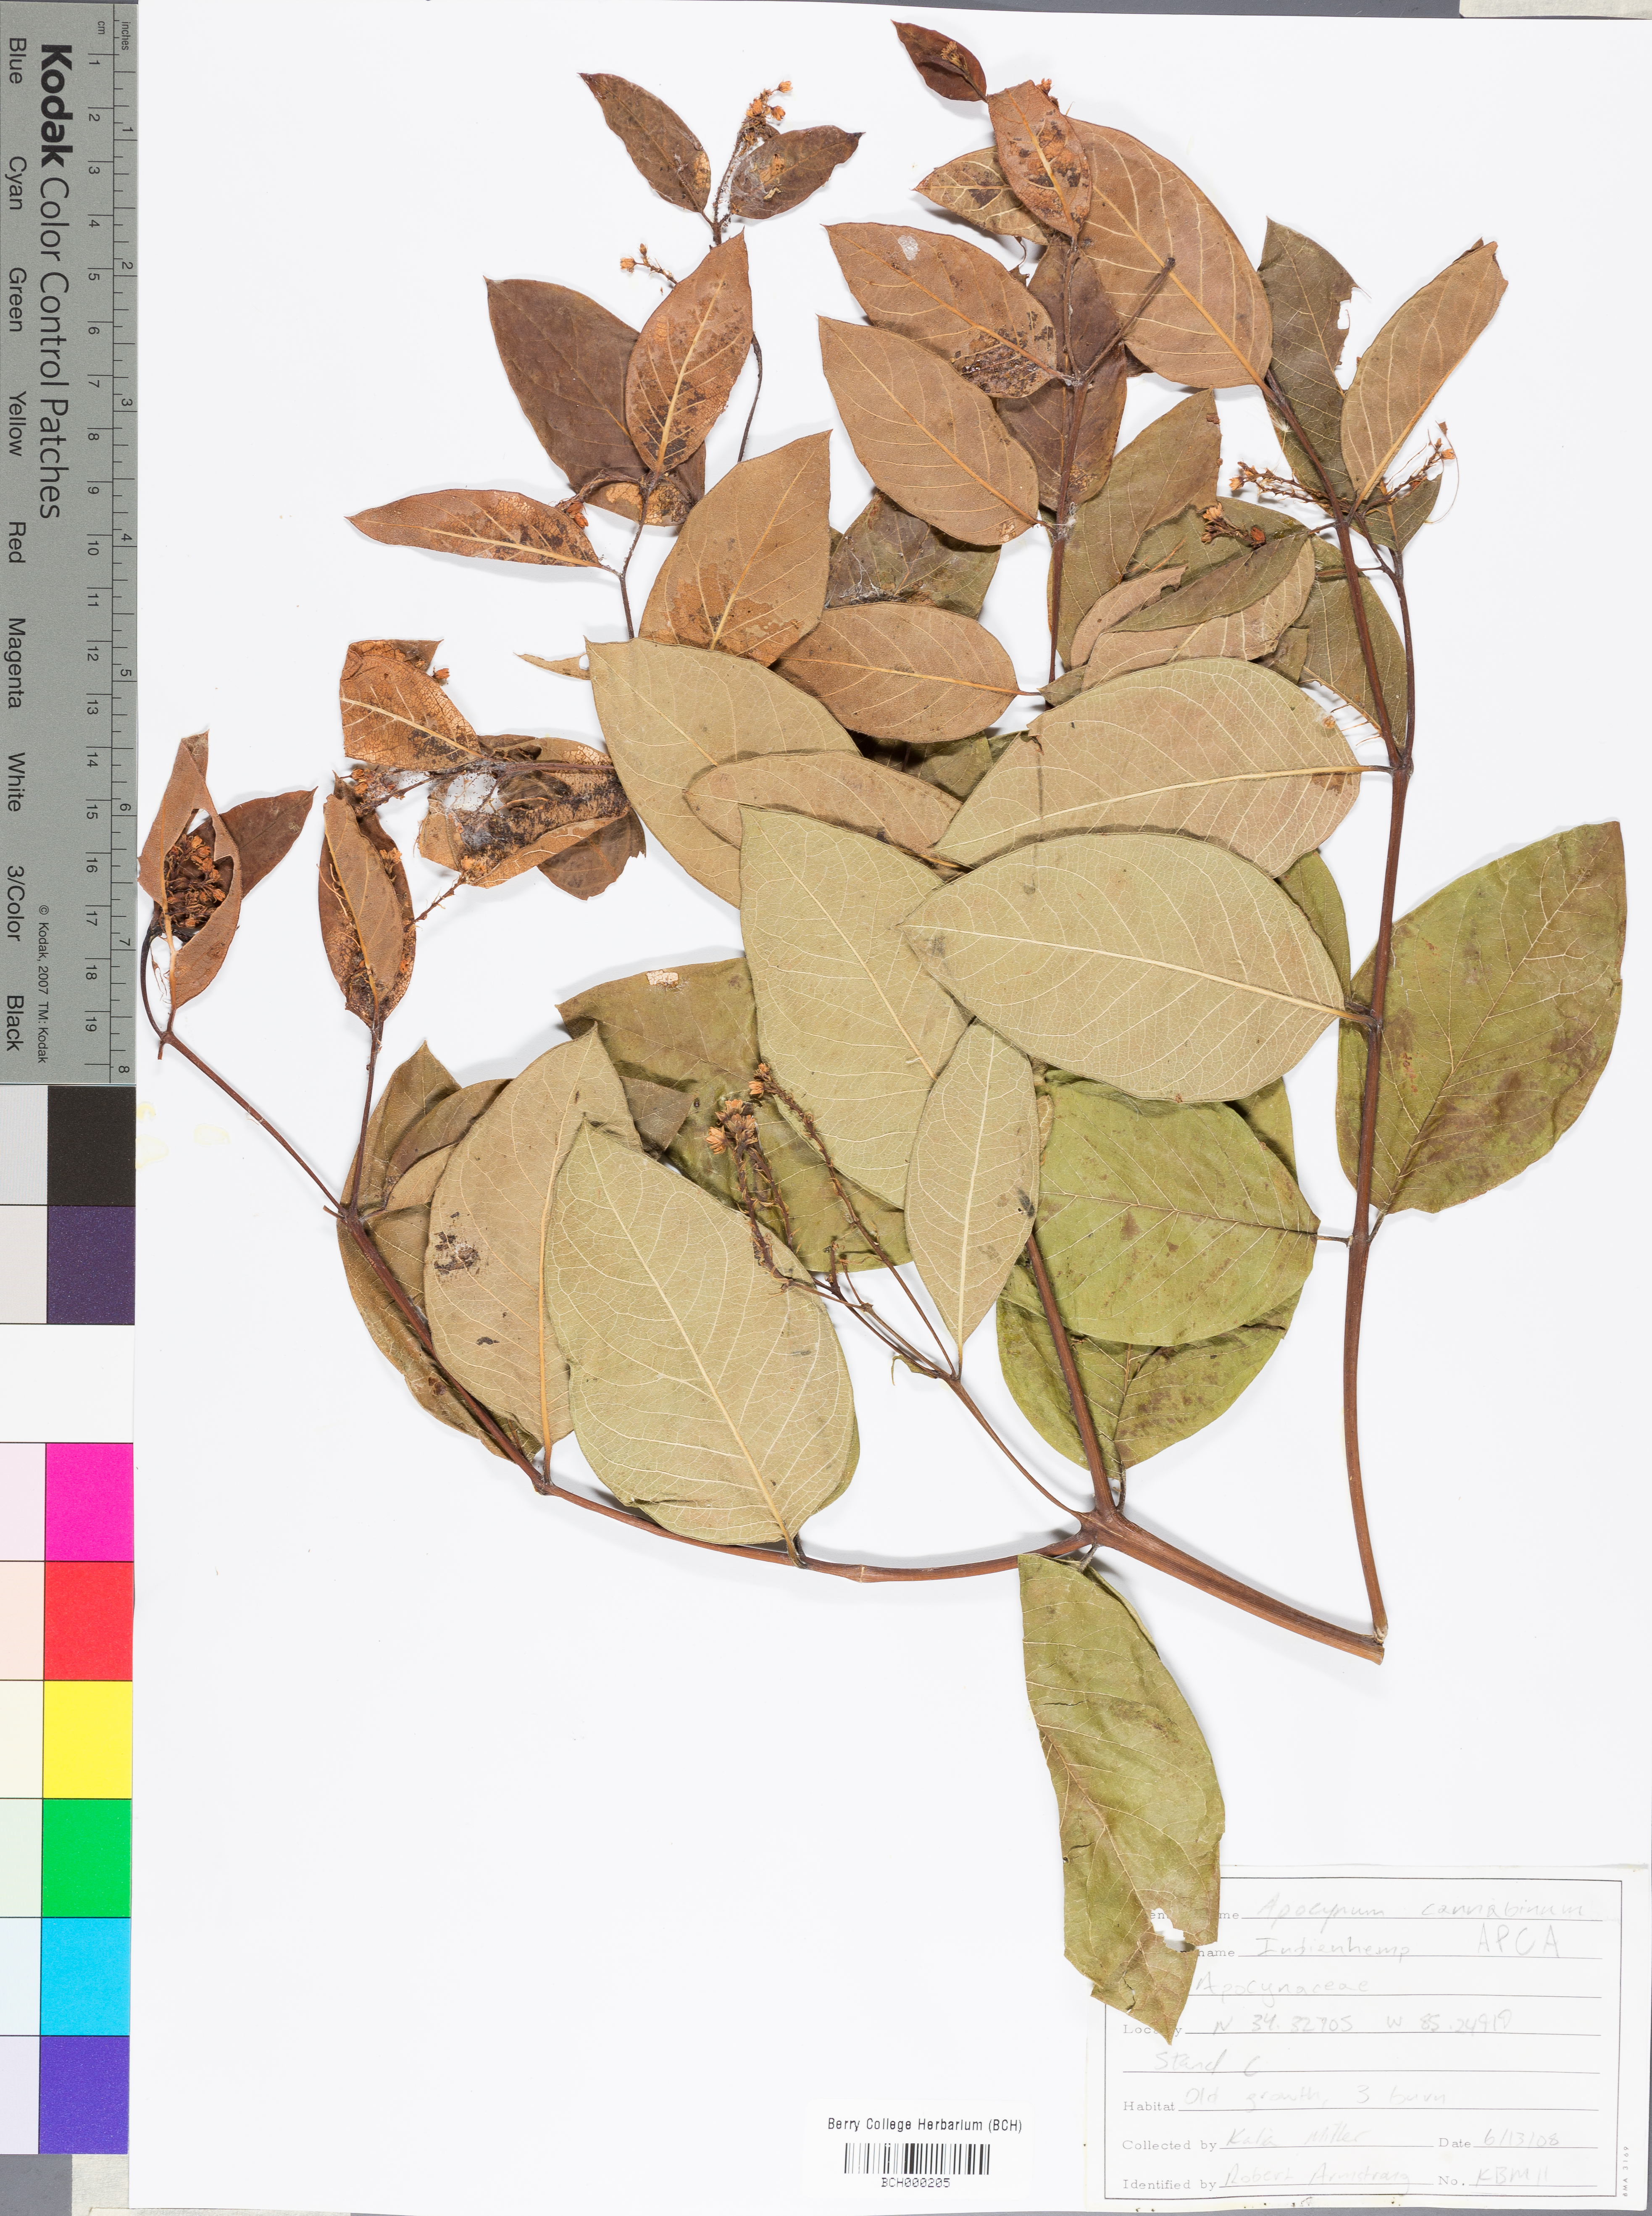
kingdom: Plantae
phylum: Tracheophyta
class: Magnoliopsida
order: Gentianales
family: Apocynaceae
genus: Apocynum
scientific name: Apocynum cannabinum
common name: Hemp dogbane
